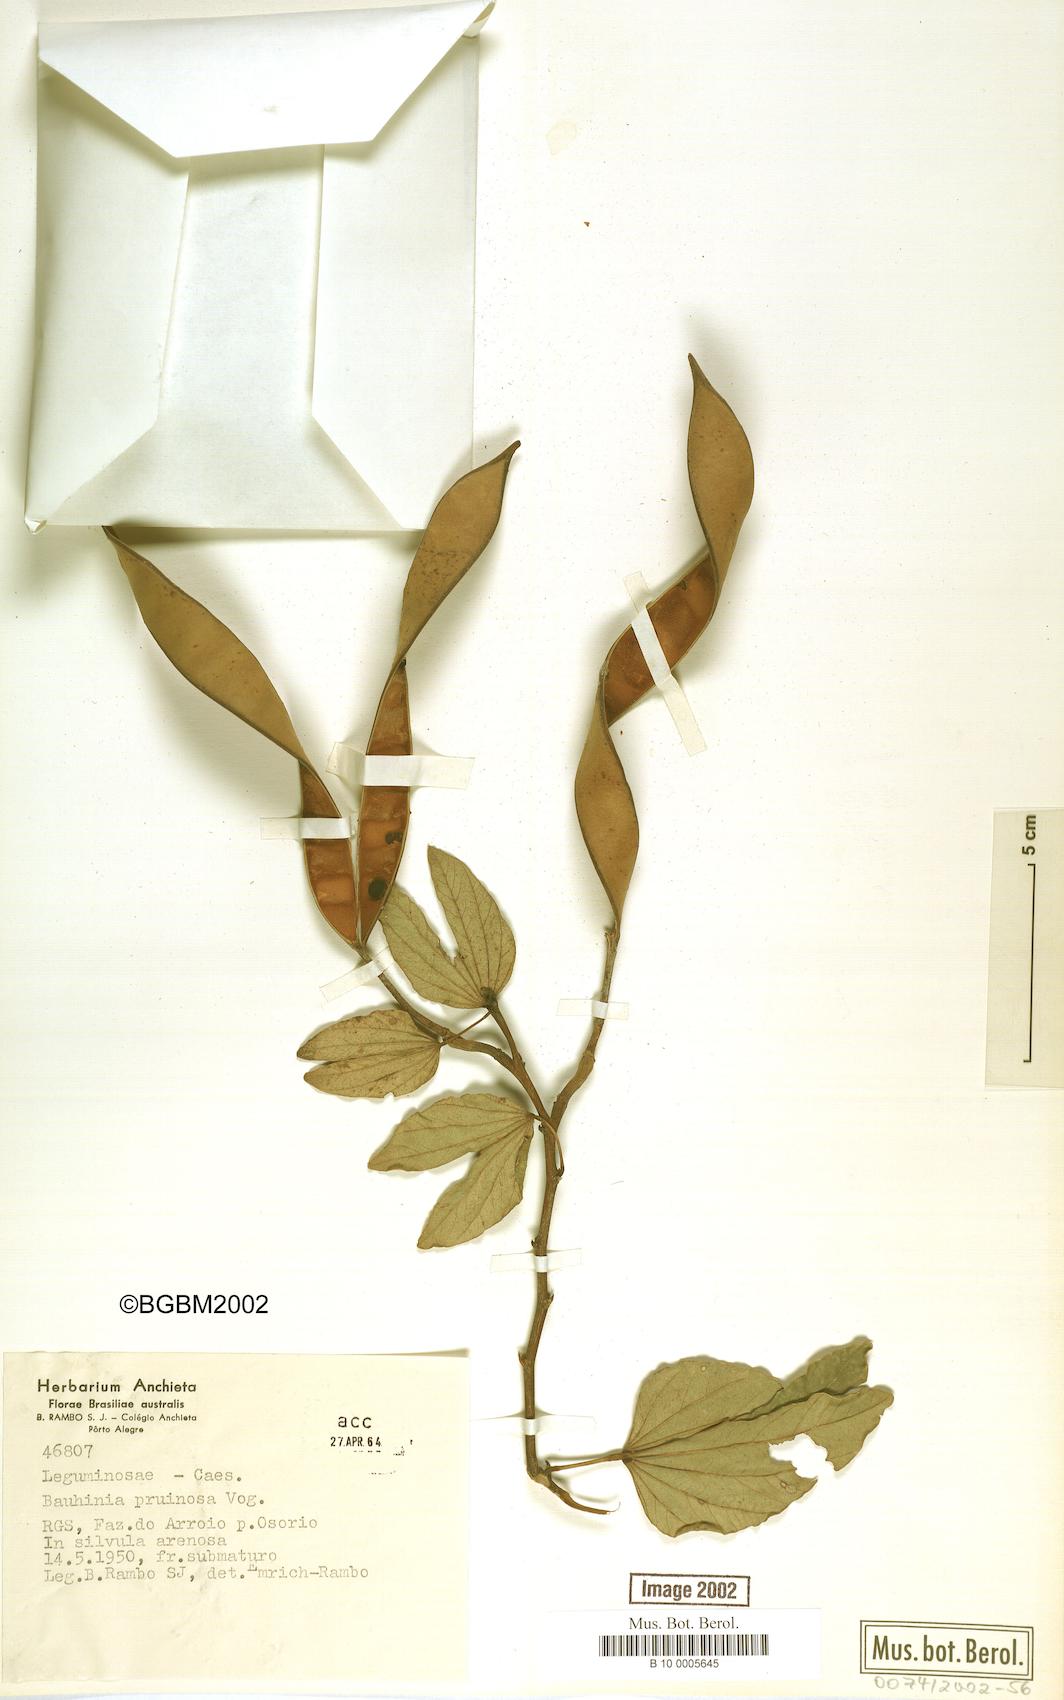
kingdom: Plantae
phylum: Tracheophyta
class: Magnoliopsida
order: Fabales
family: Fabaceae
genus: Bauhinia
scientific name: Bauhinia forficata
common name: Orchid tree
